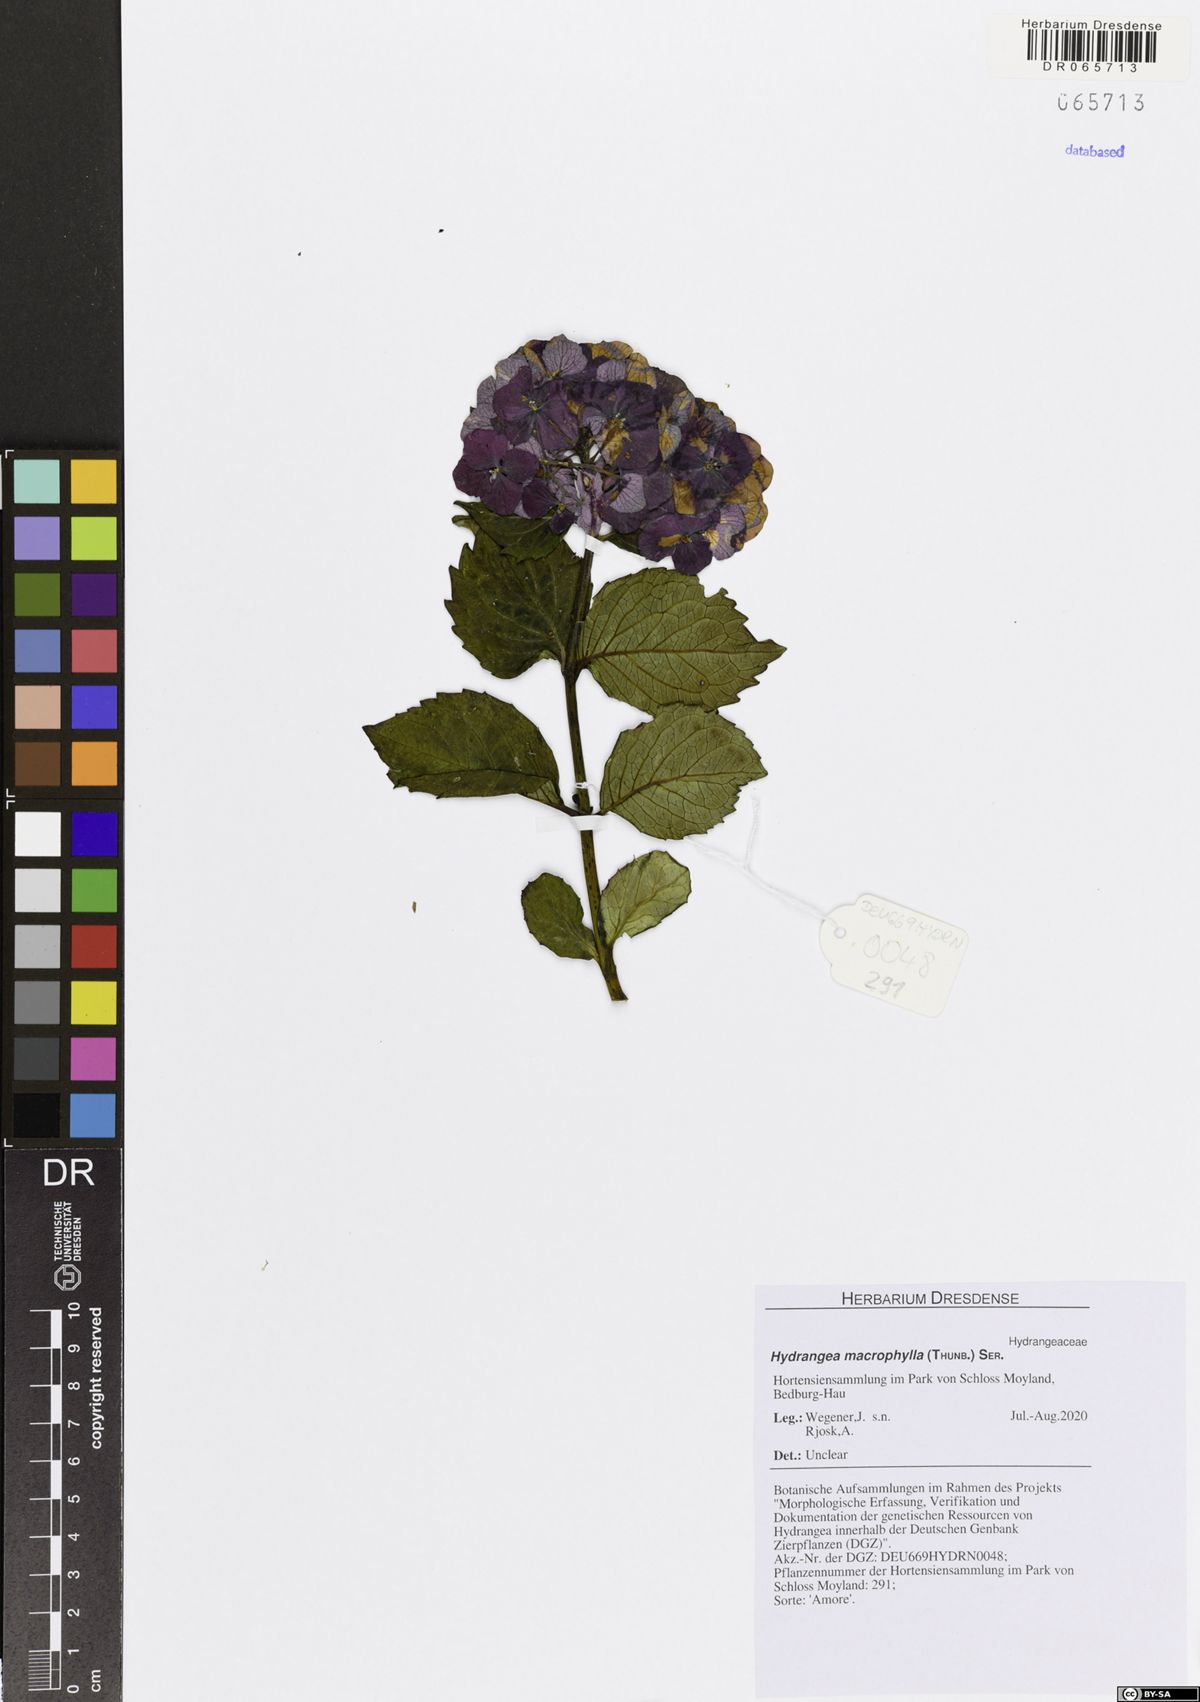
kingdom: Plantae
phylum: Tracheophyta
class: Magnoliopsida
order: Cornales
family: Hydrangeaceae
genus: Hydrangea
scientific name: Hydrangea macrophylla
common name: Hydrangea
